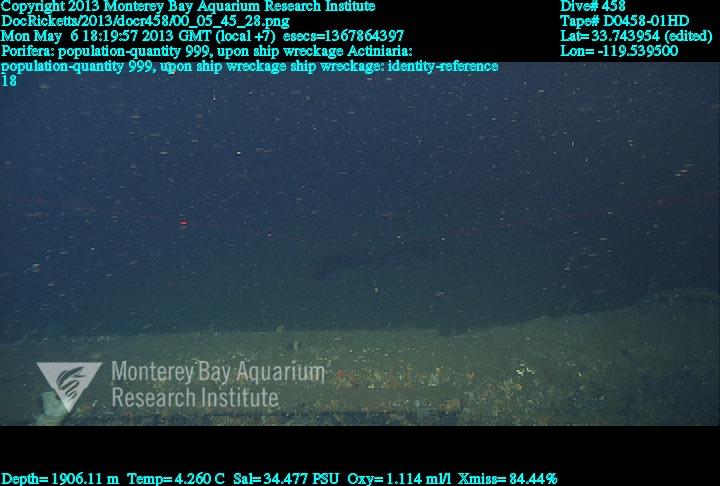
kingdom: Animalia
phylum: Porifera
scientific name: Porifera
